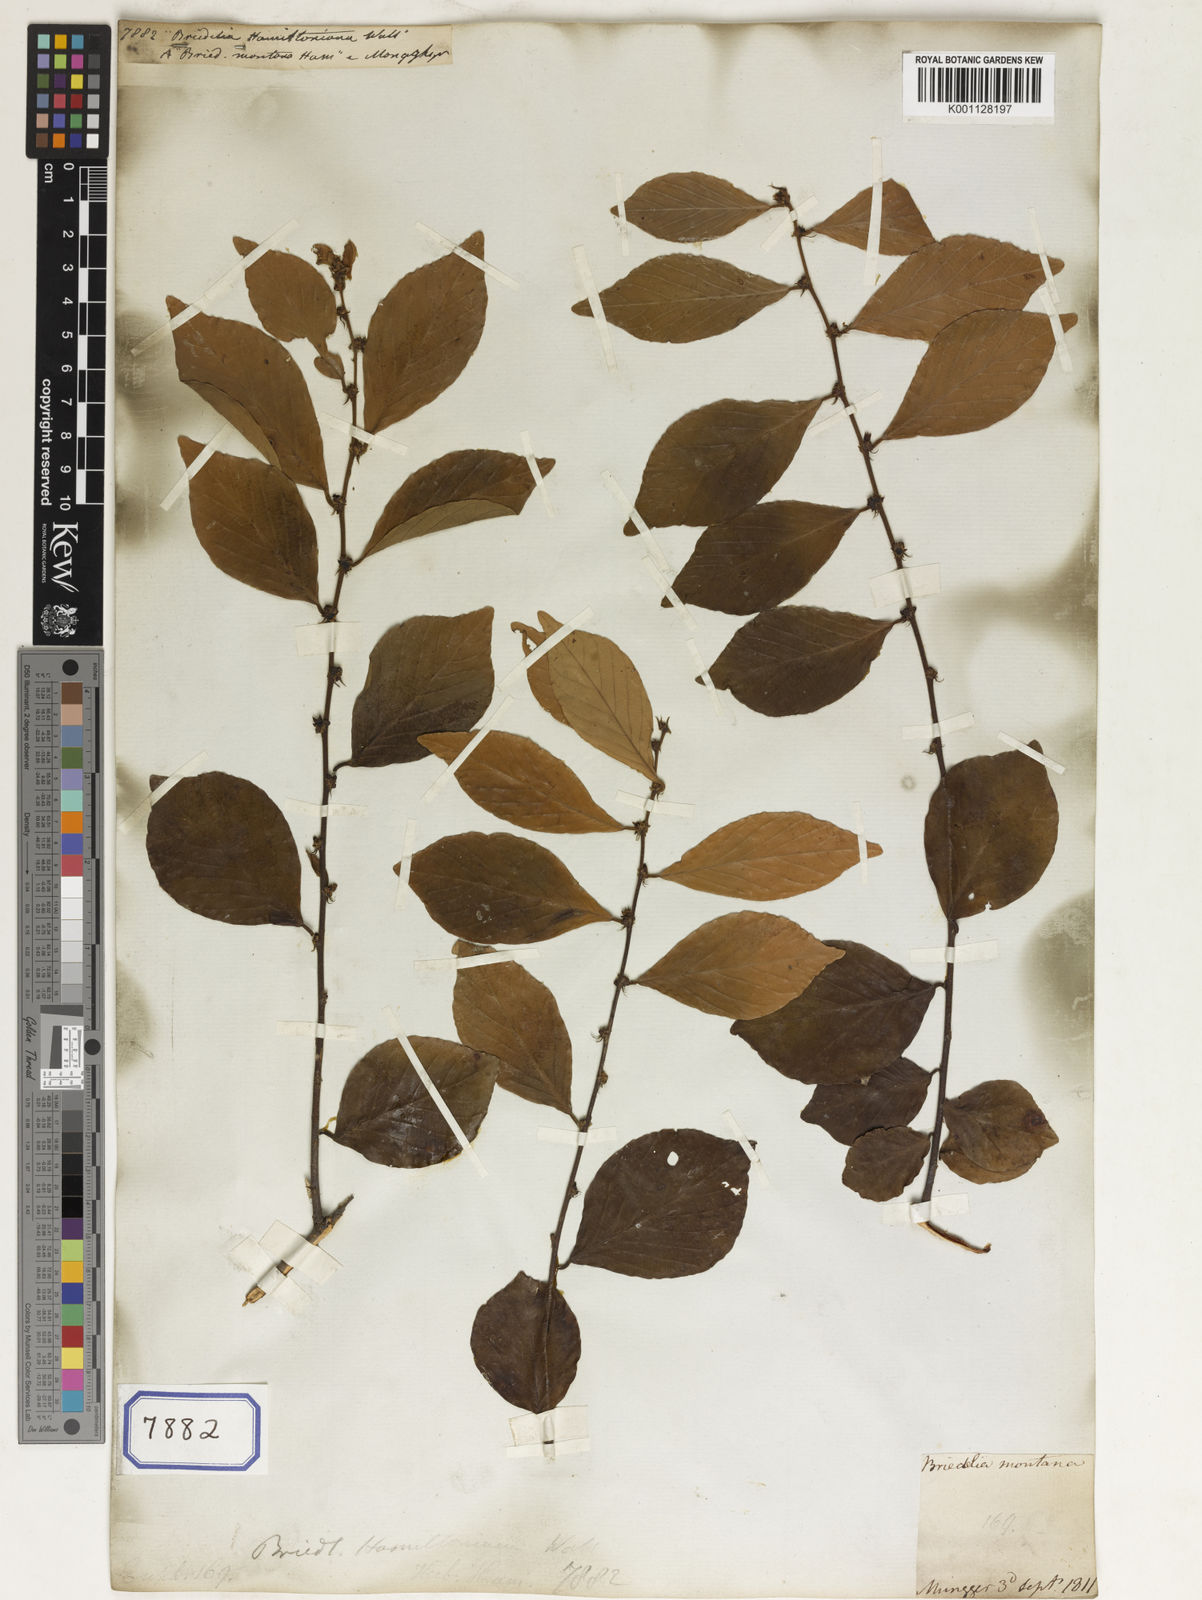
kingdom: Plantae
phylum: Tracheophyta
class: Magnoliopsida
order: Malpighiales
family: Euphorbiaceae
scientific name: Euphorbiaceae
